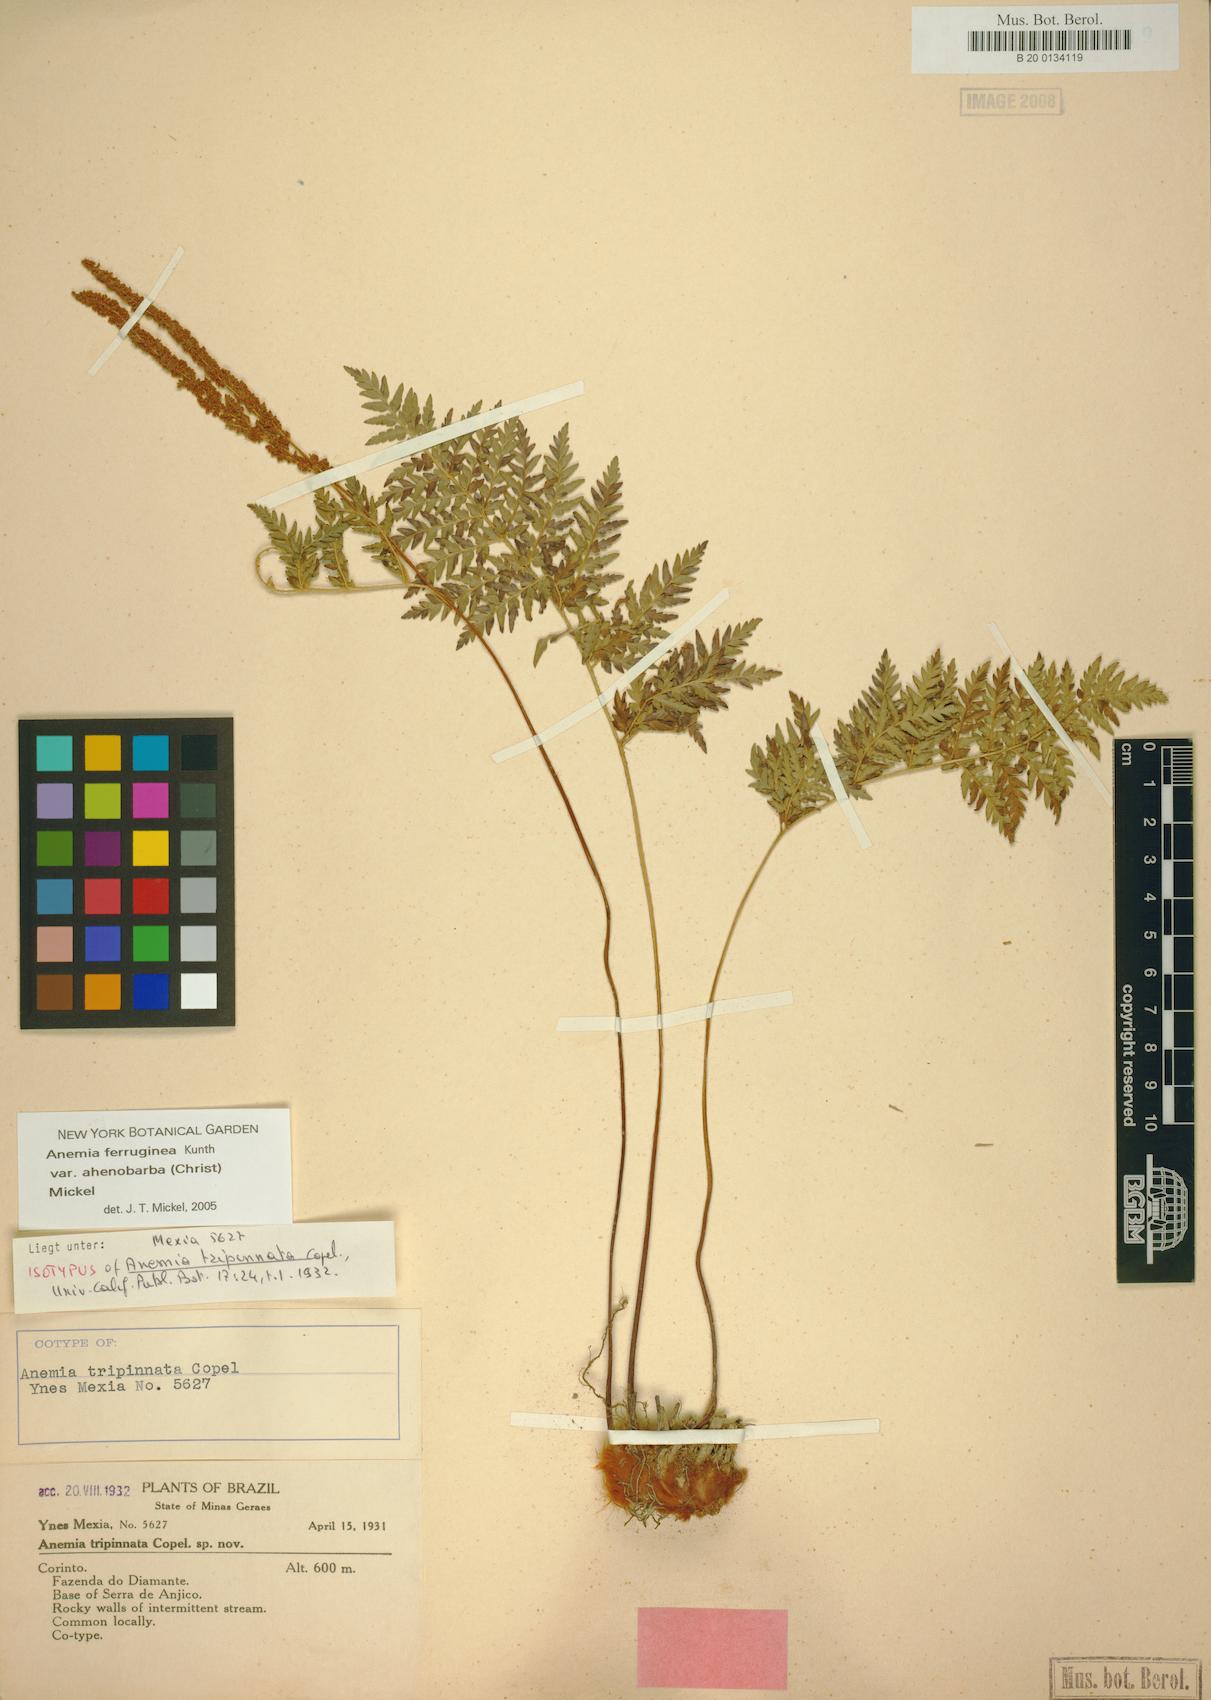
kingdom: Plantae
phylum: Tracheophyta
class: Polypodiopsida
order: Schizaeales
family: Anemiaceae
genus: Anemia
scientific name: Anemia ferruginea
